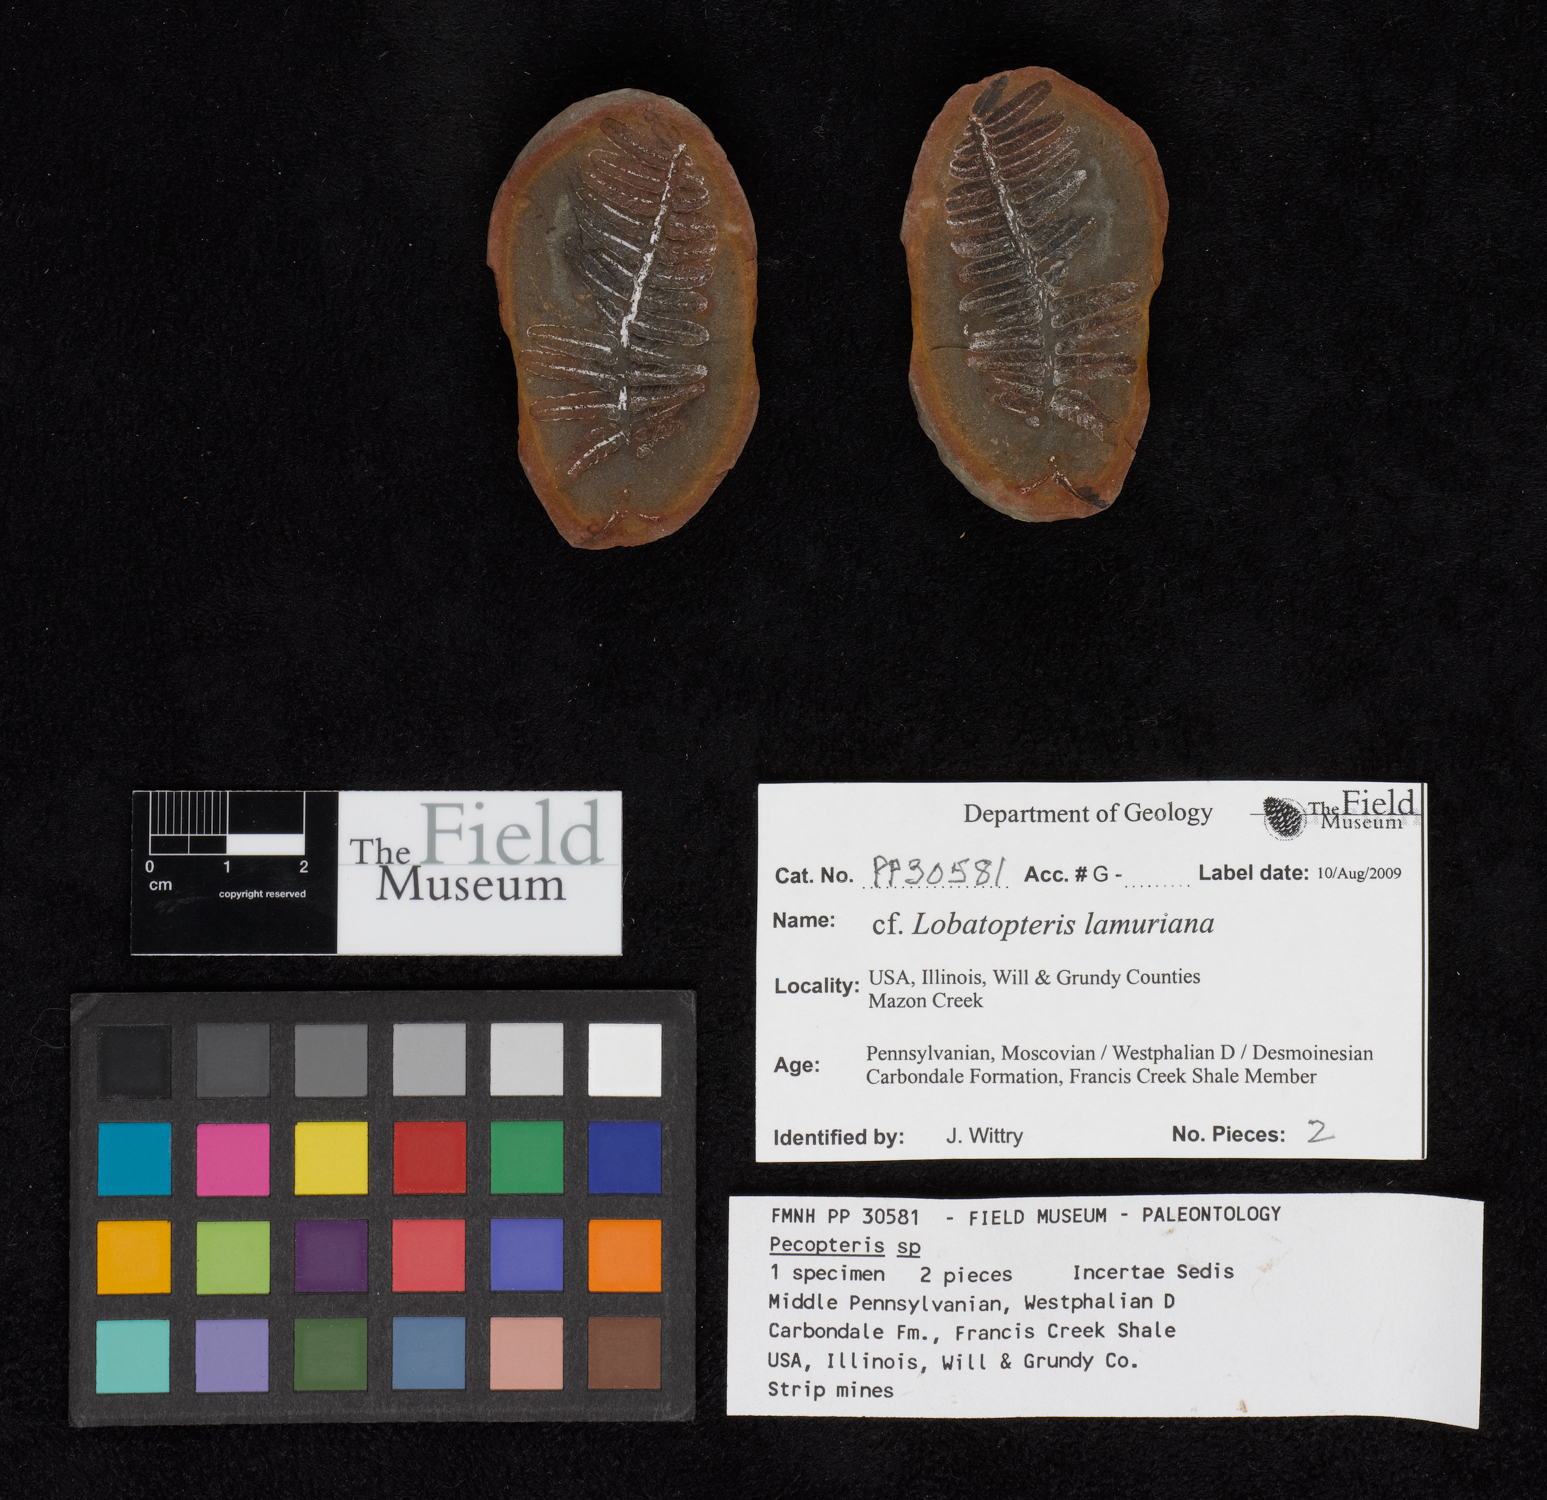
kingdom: Plantae
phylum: Tracheophyta
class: Polypodiopsida
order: Marattiales
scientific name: Marattiales
